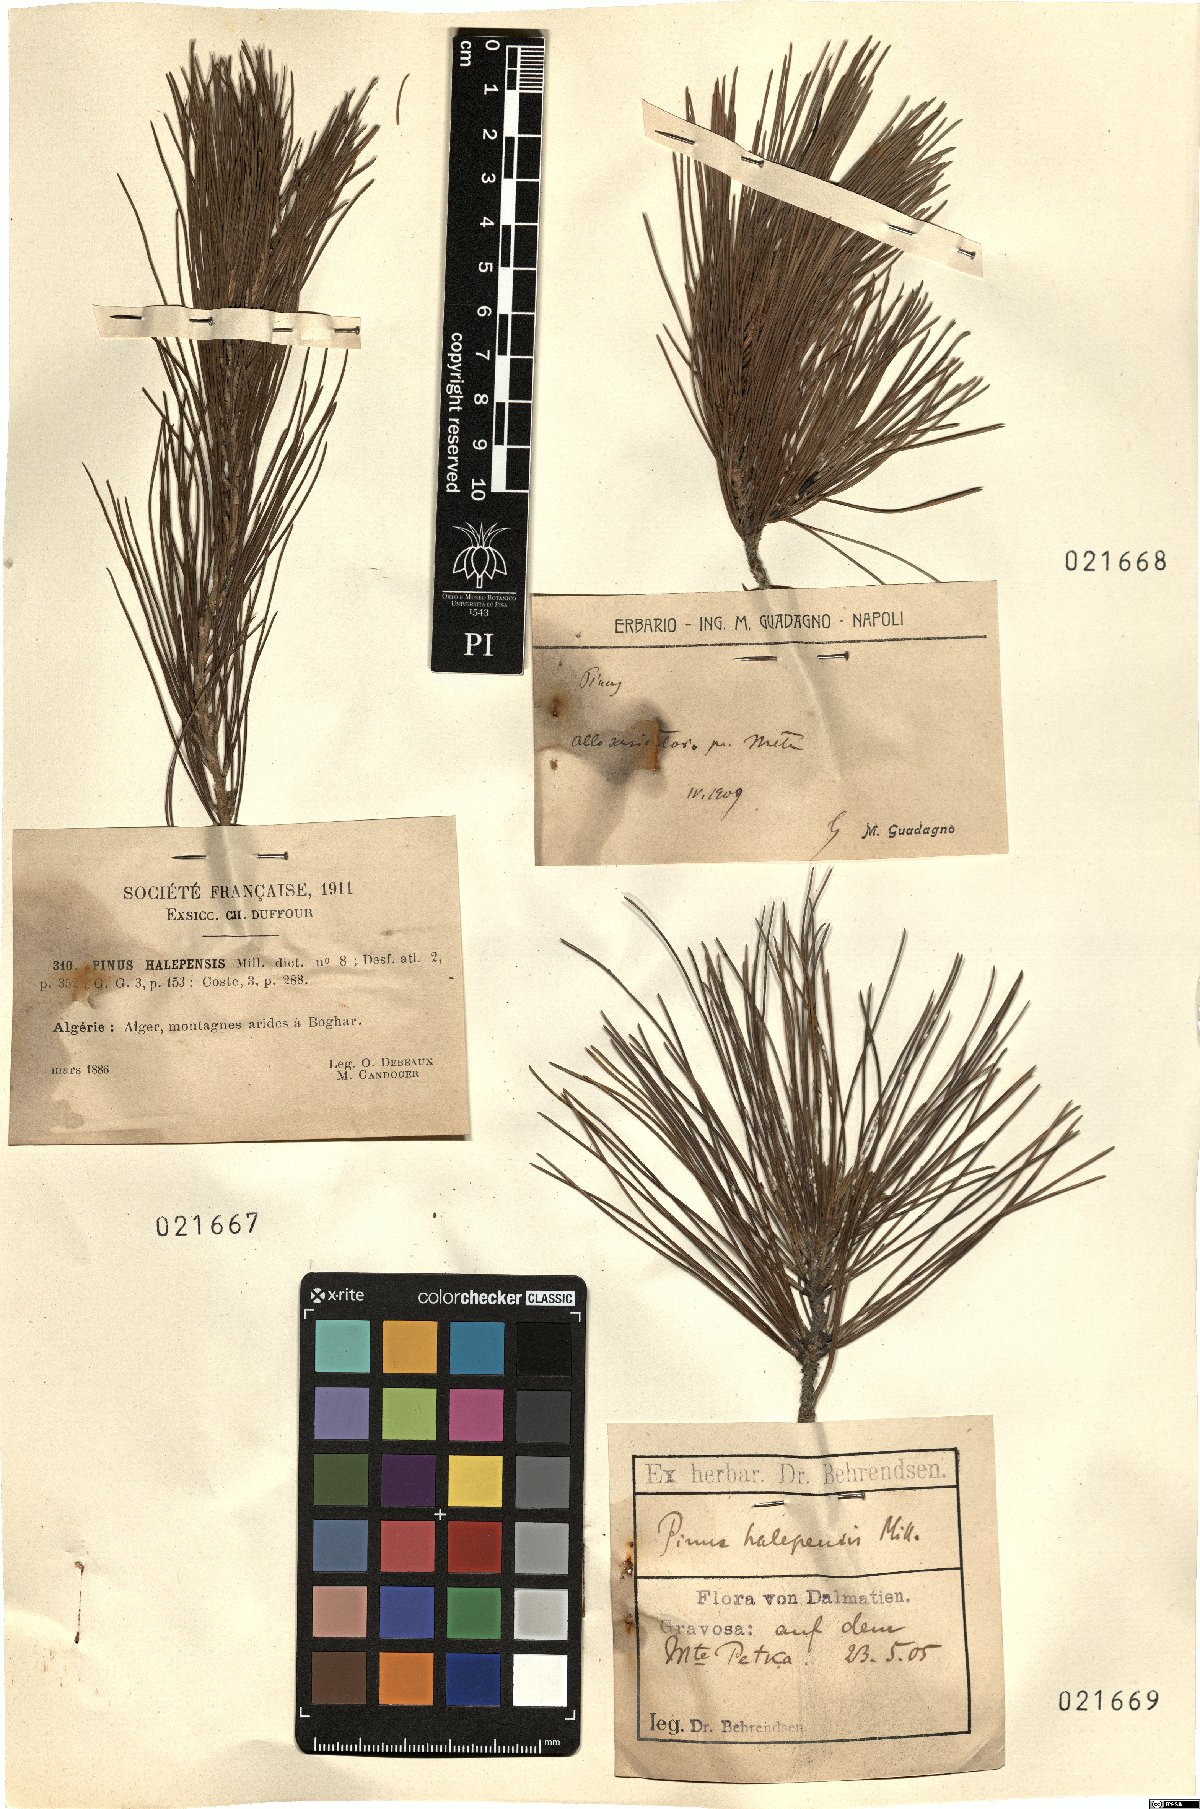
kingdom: Plantae
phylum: Tracheophyta
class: Pinopsida
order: Pinales
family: Pinaceae
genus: Pinus
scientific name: Pinus
